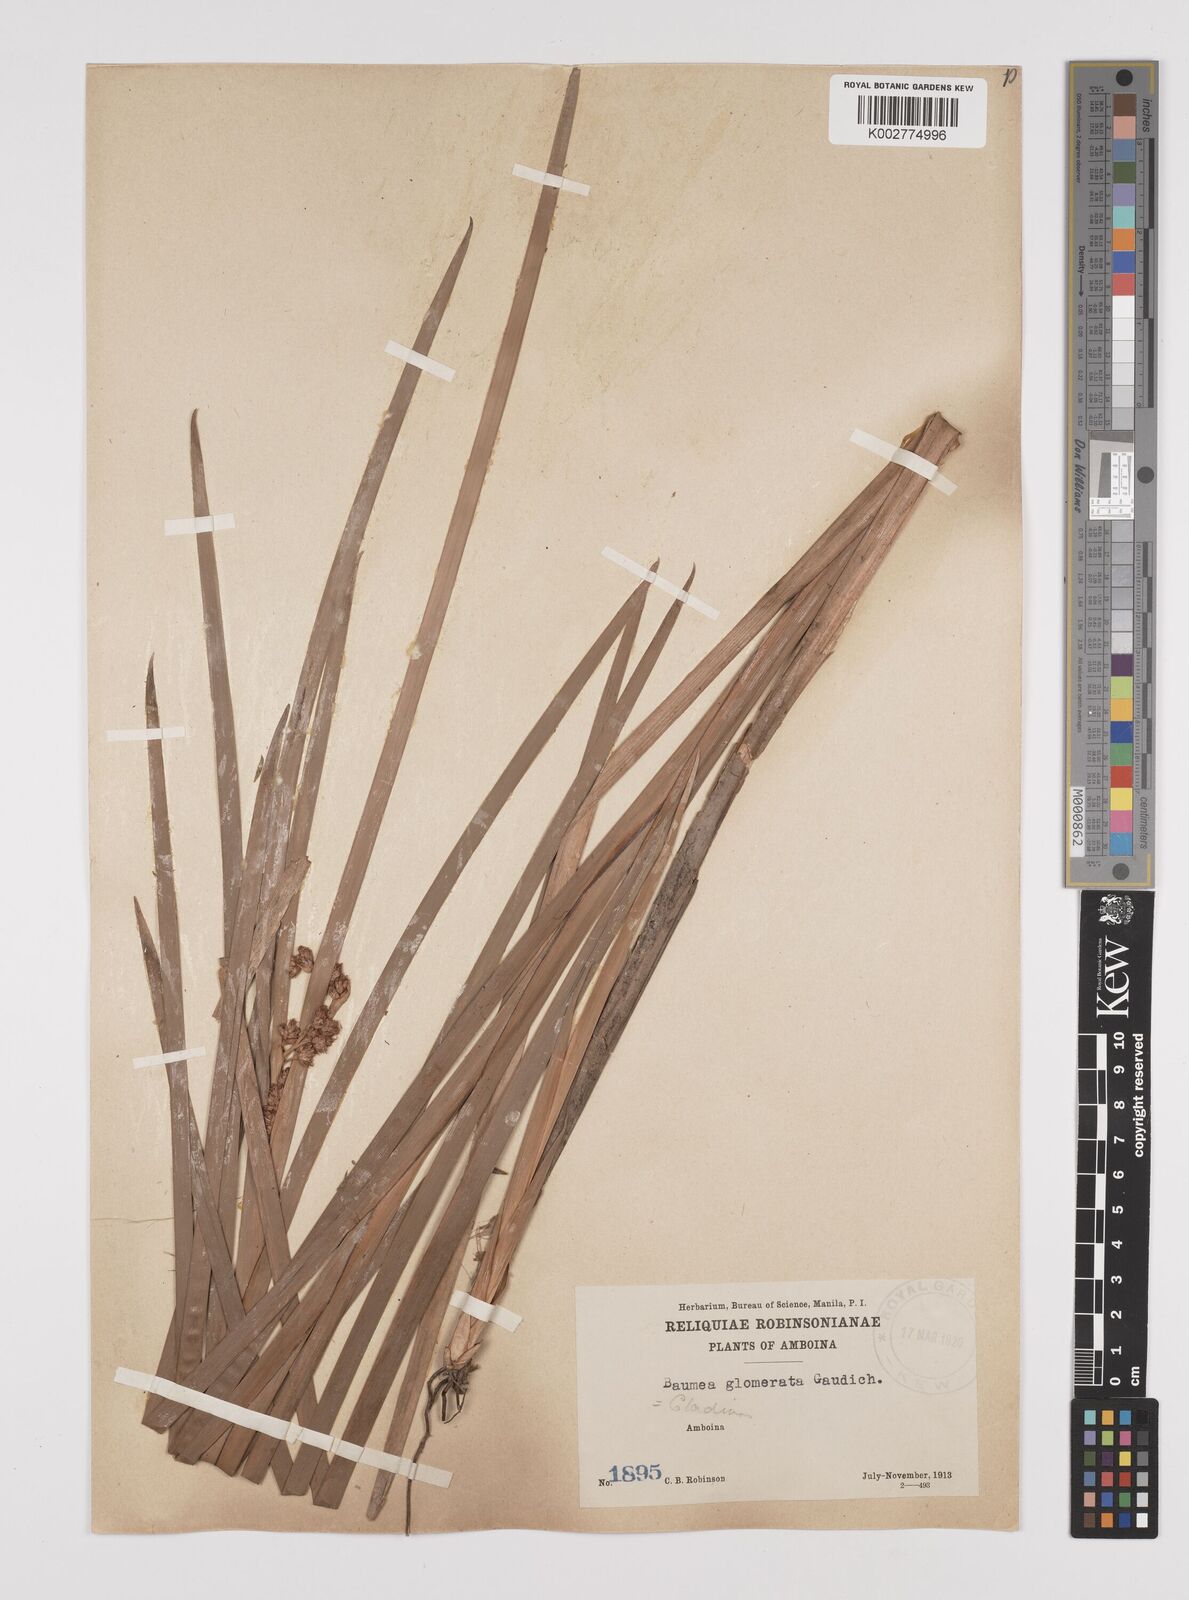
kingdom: Plantae
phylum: Tracheophyta
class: Liliopsida
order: Poales
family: Cyperaceae
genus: Machaerina
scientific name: Machaerina glomerata
